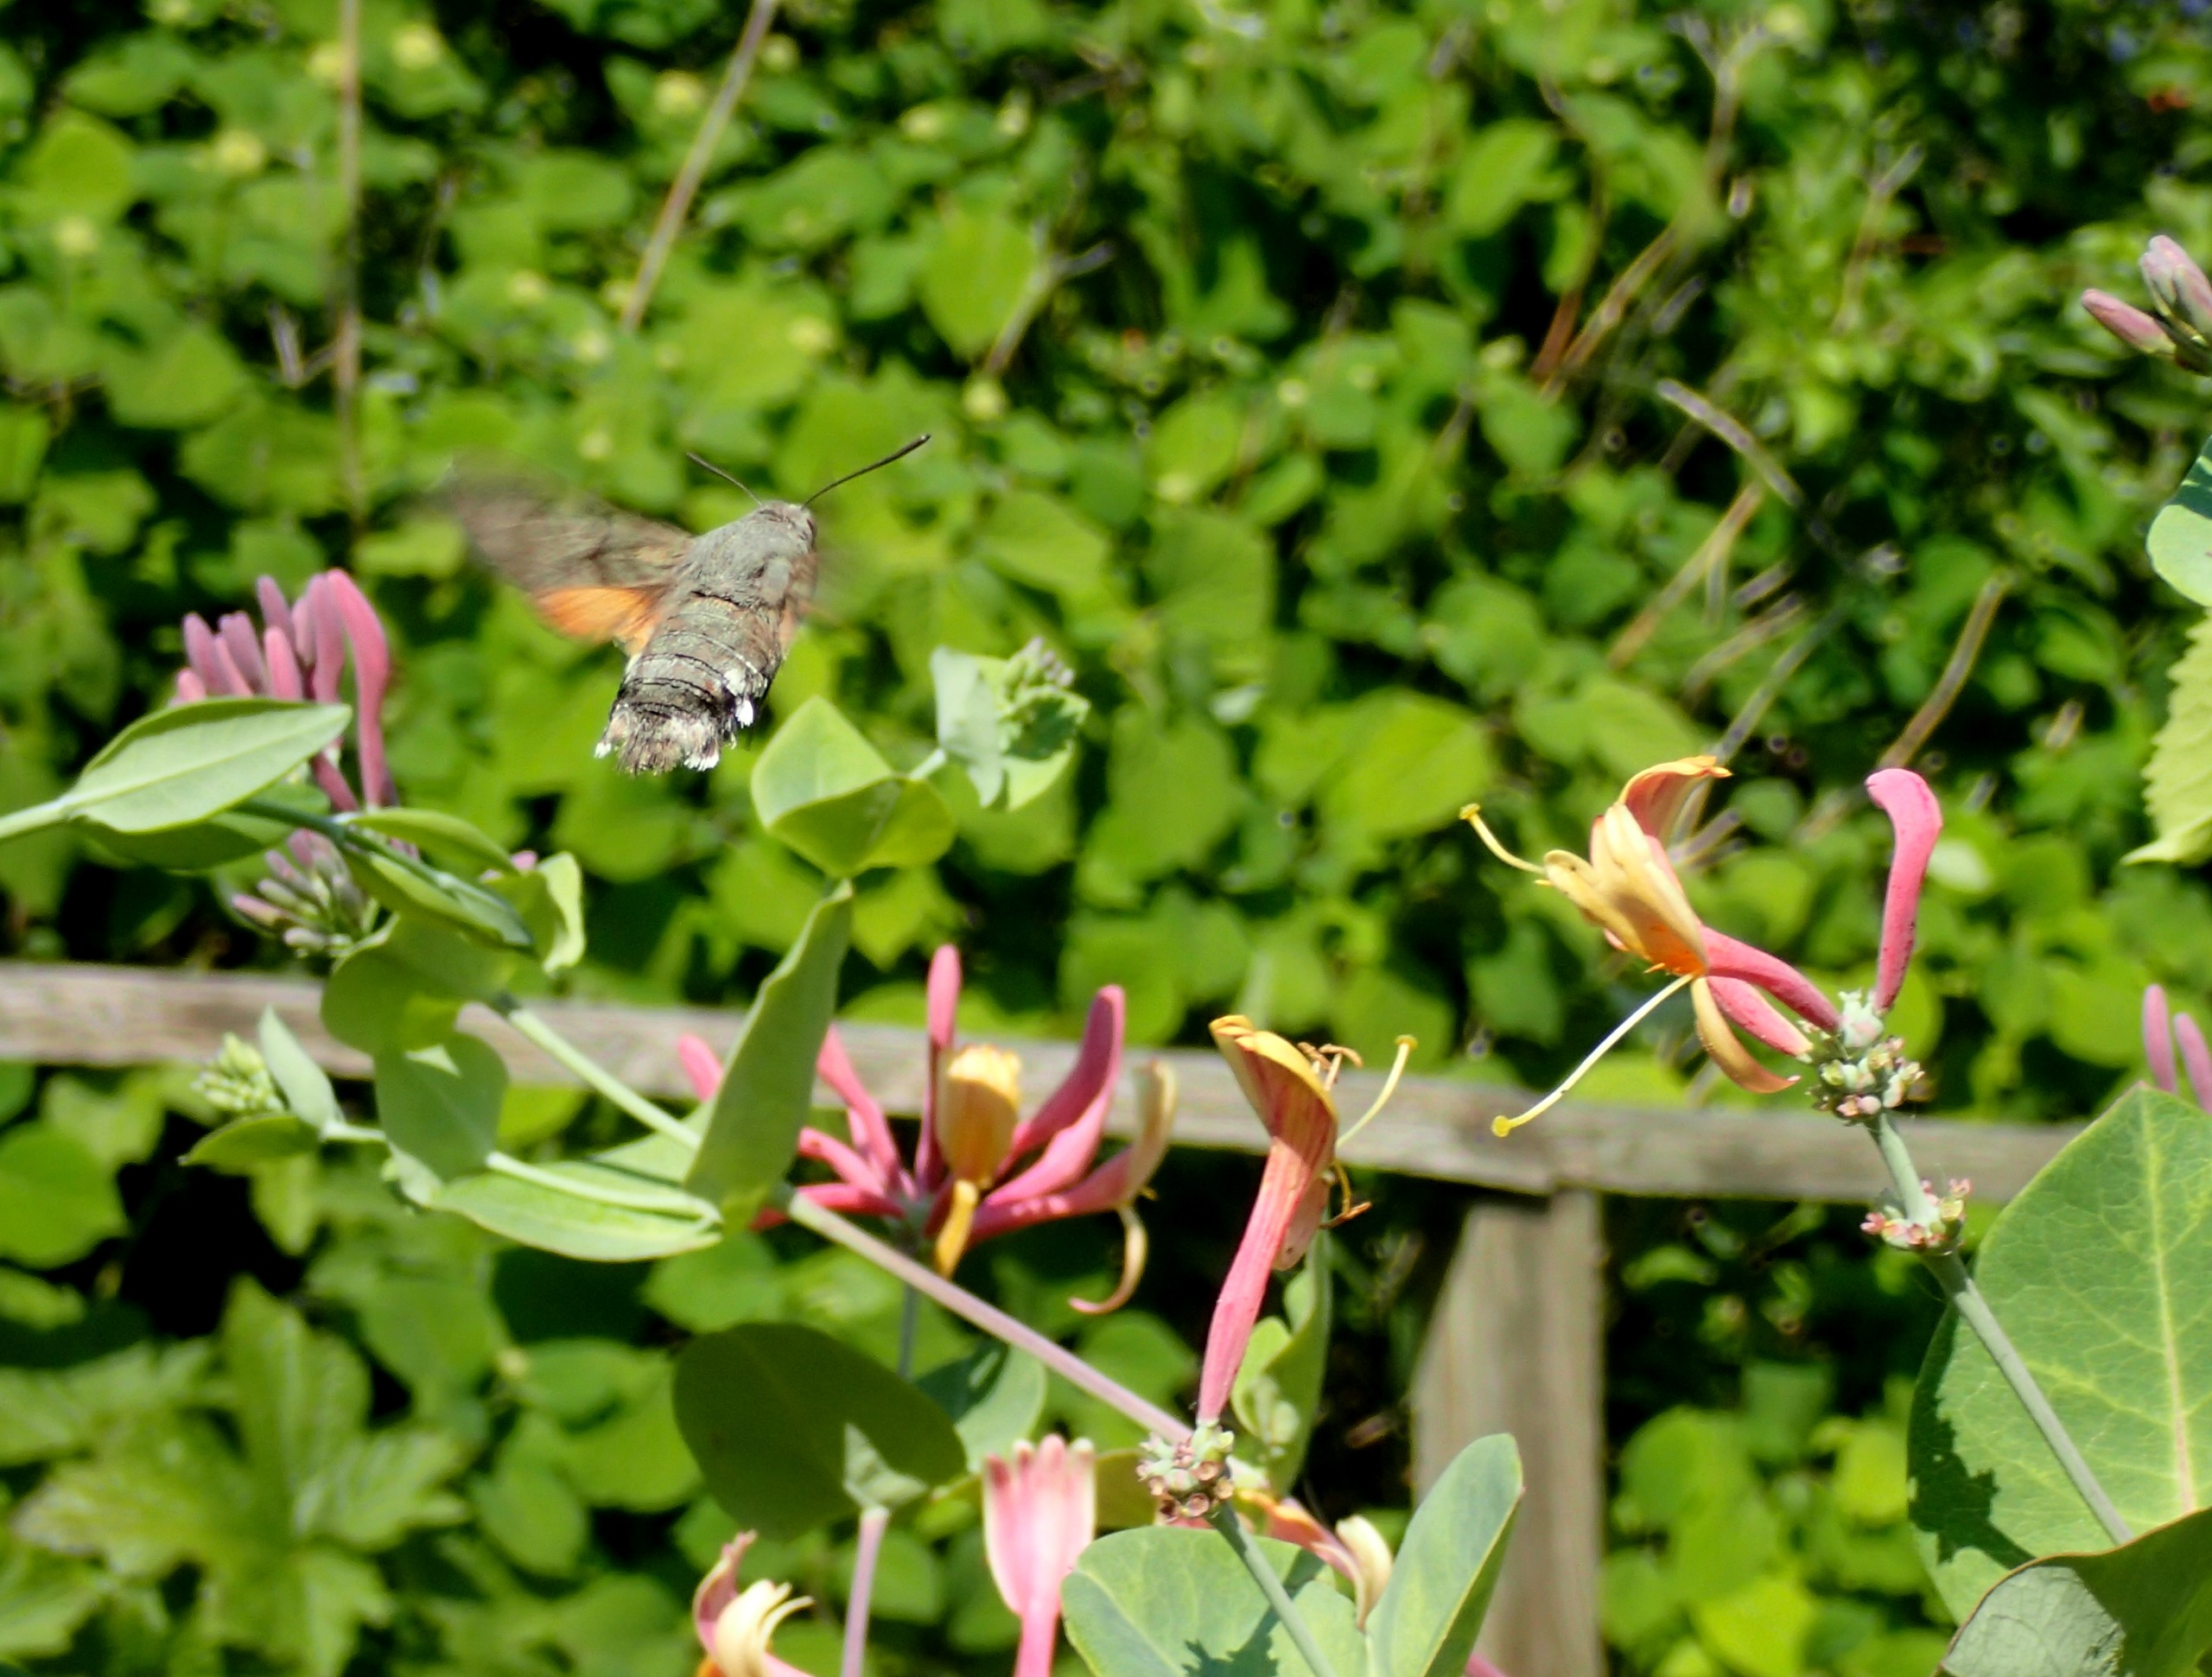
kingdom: Animalia
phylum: Arthropoda
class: Insecta
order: Lepidoptera
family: Sphingidae
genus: Macroglossum
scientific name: Macroglossum stellatarum
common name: Duehale
